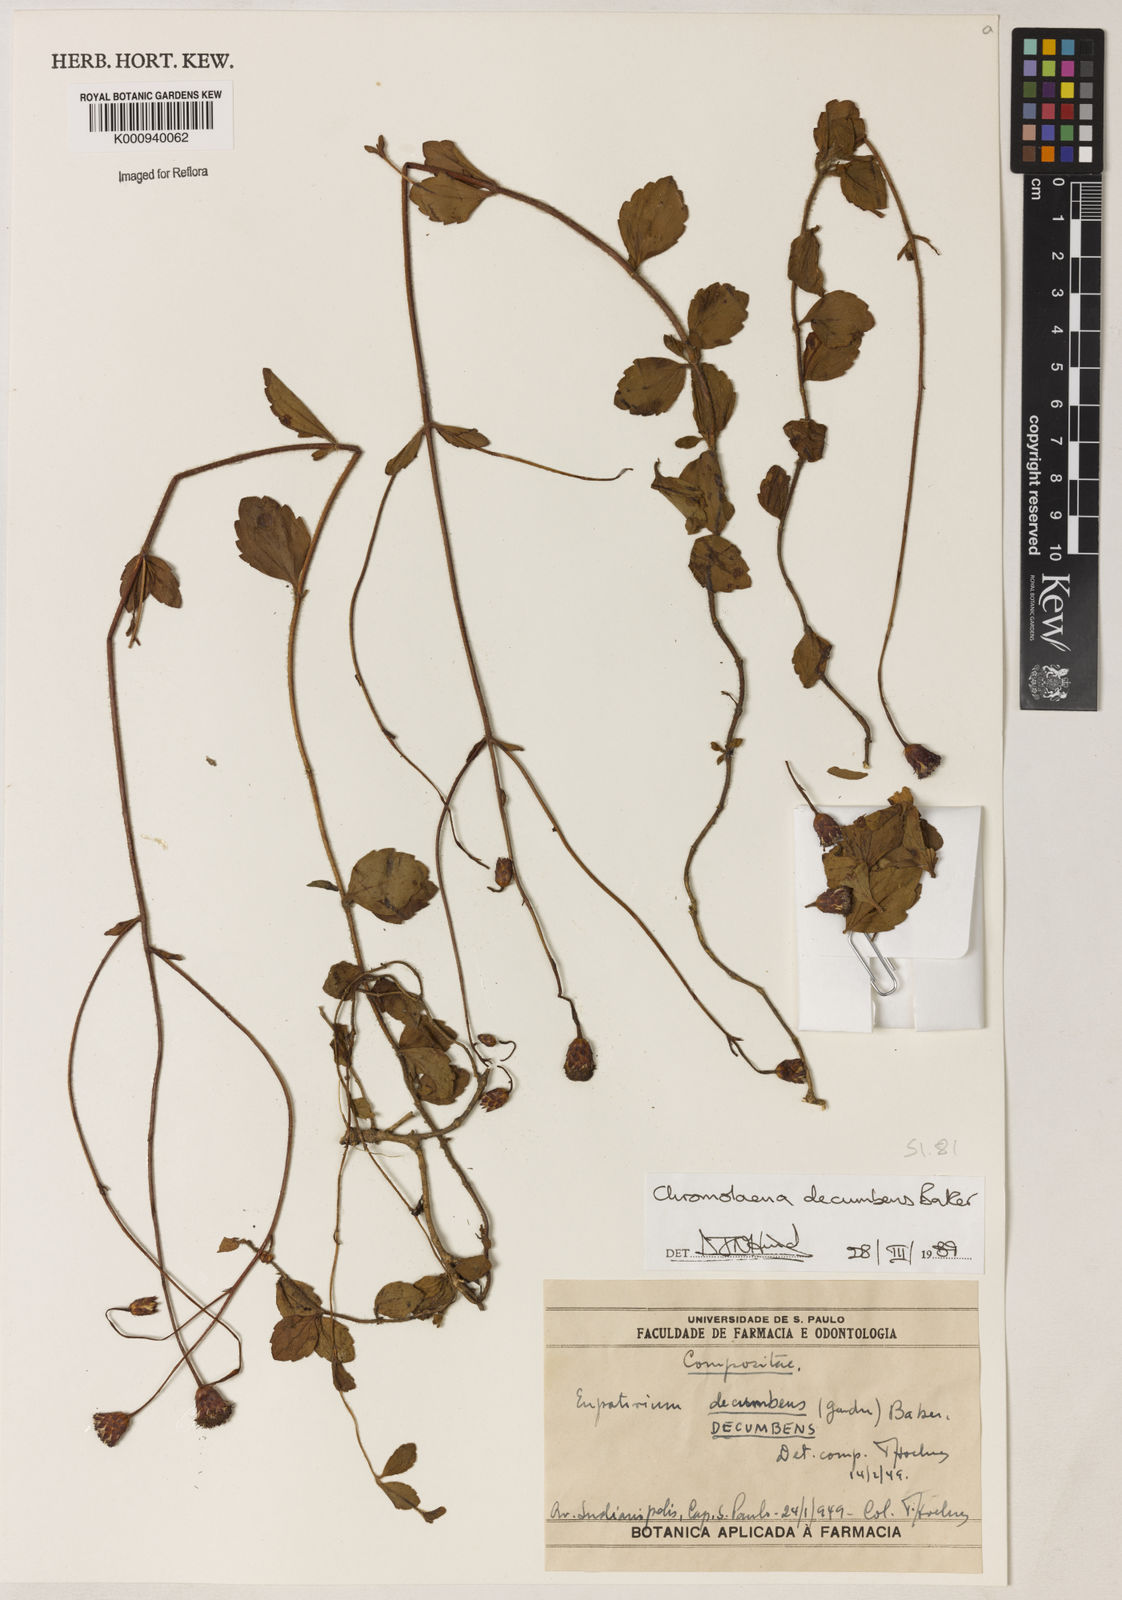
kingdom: Plantae
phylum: Tracheophyta
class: Magnoliopsida
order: Asterales
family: Asteraceae
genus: Praxelis
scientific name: Praxelis decumbens
